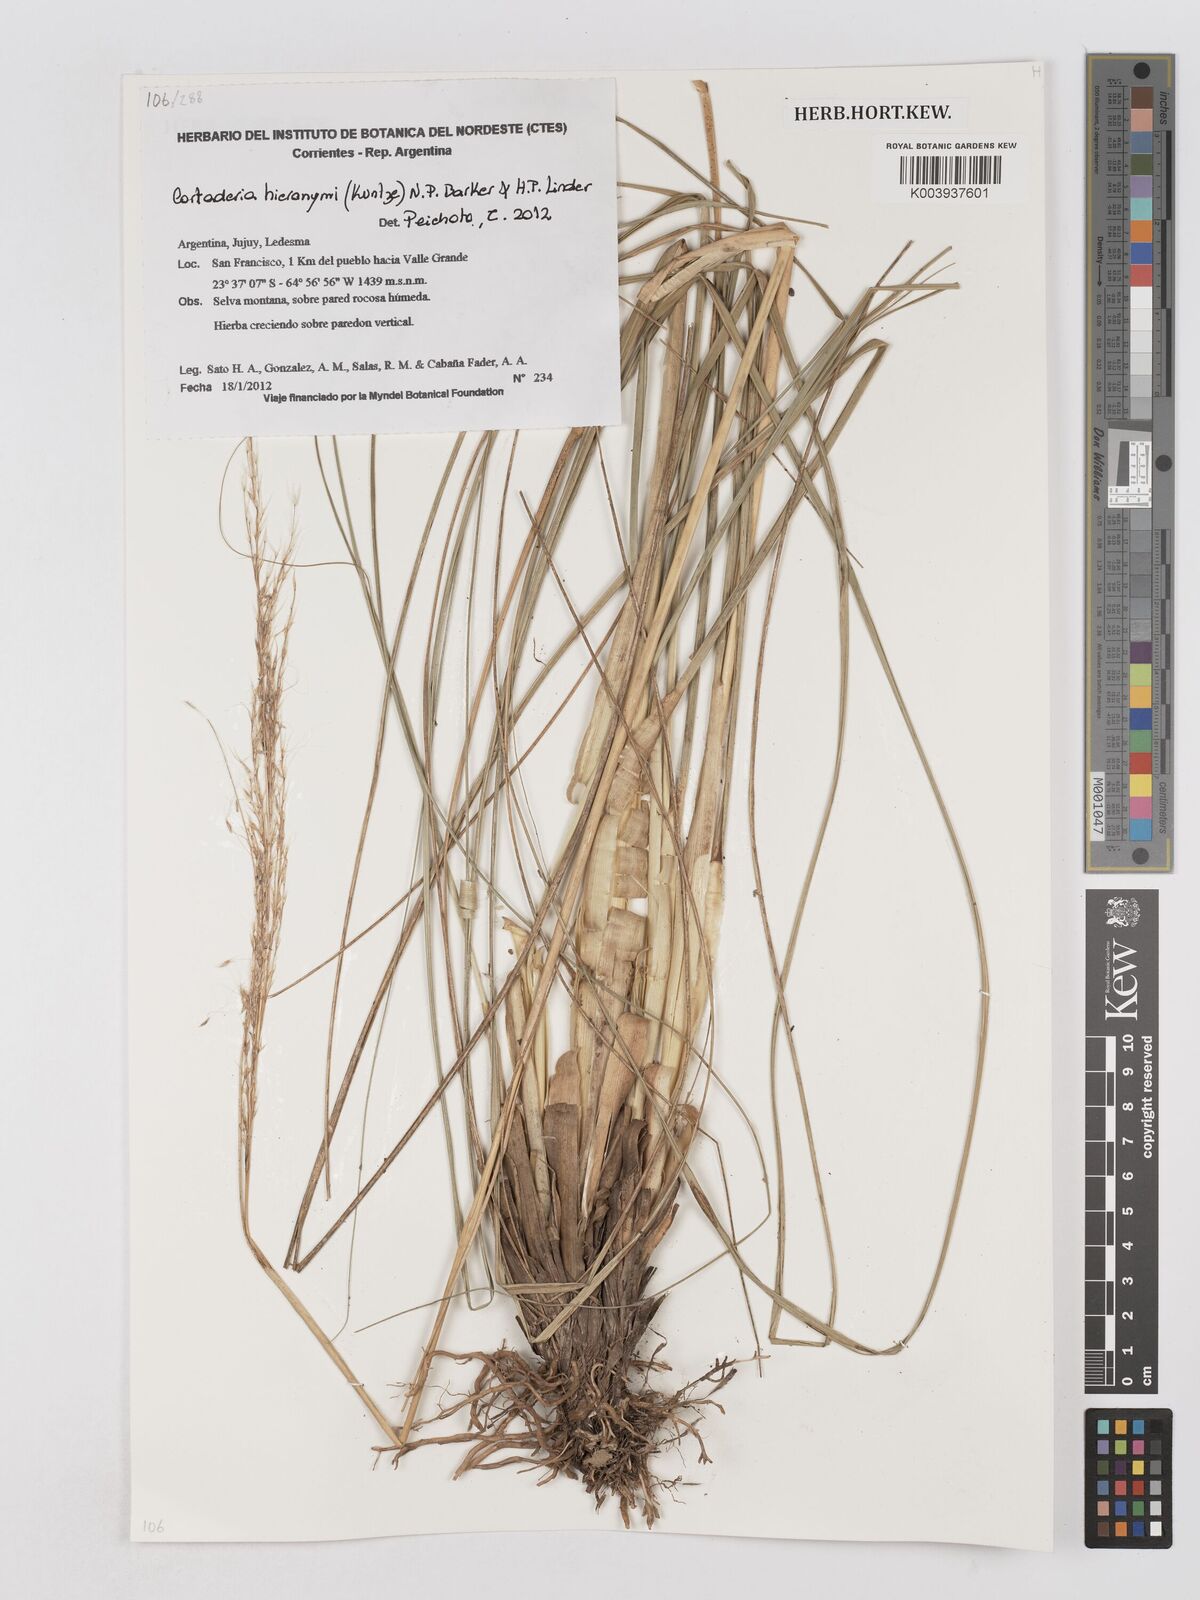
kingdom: Plantae
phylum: Tracheophyta
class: Liliopsida
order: Poales
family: Poaceae
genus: Cortaderia
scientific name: Cortaderia hieronymi
